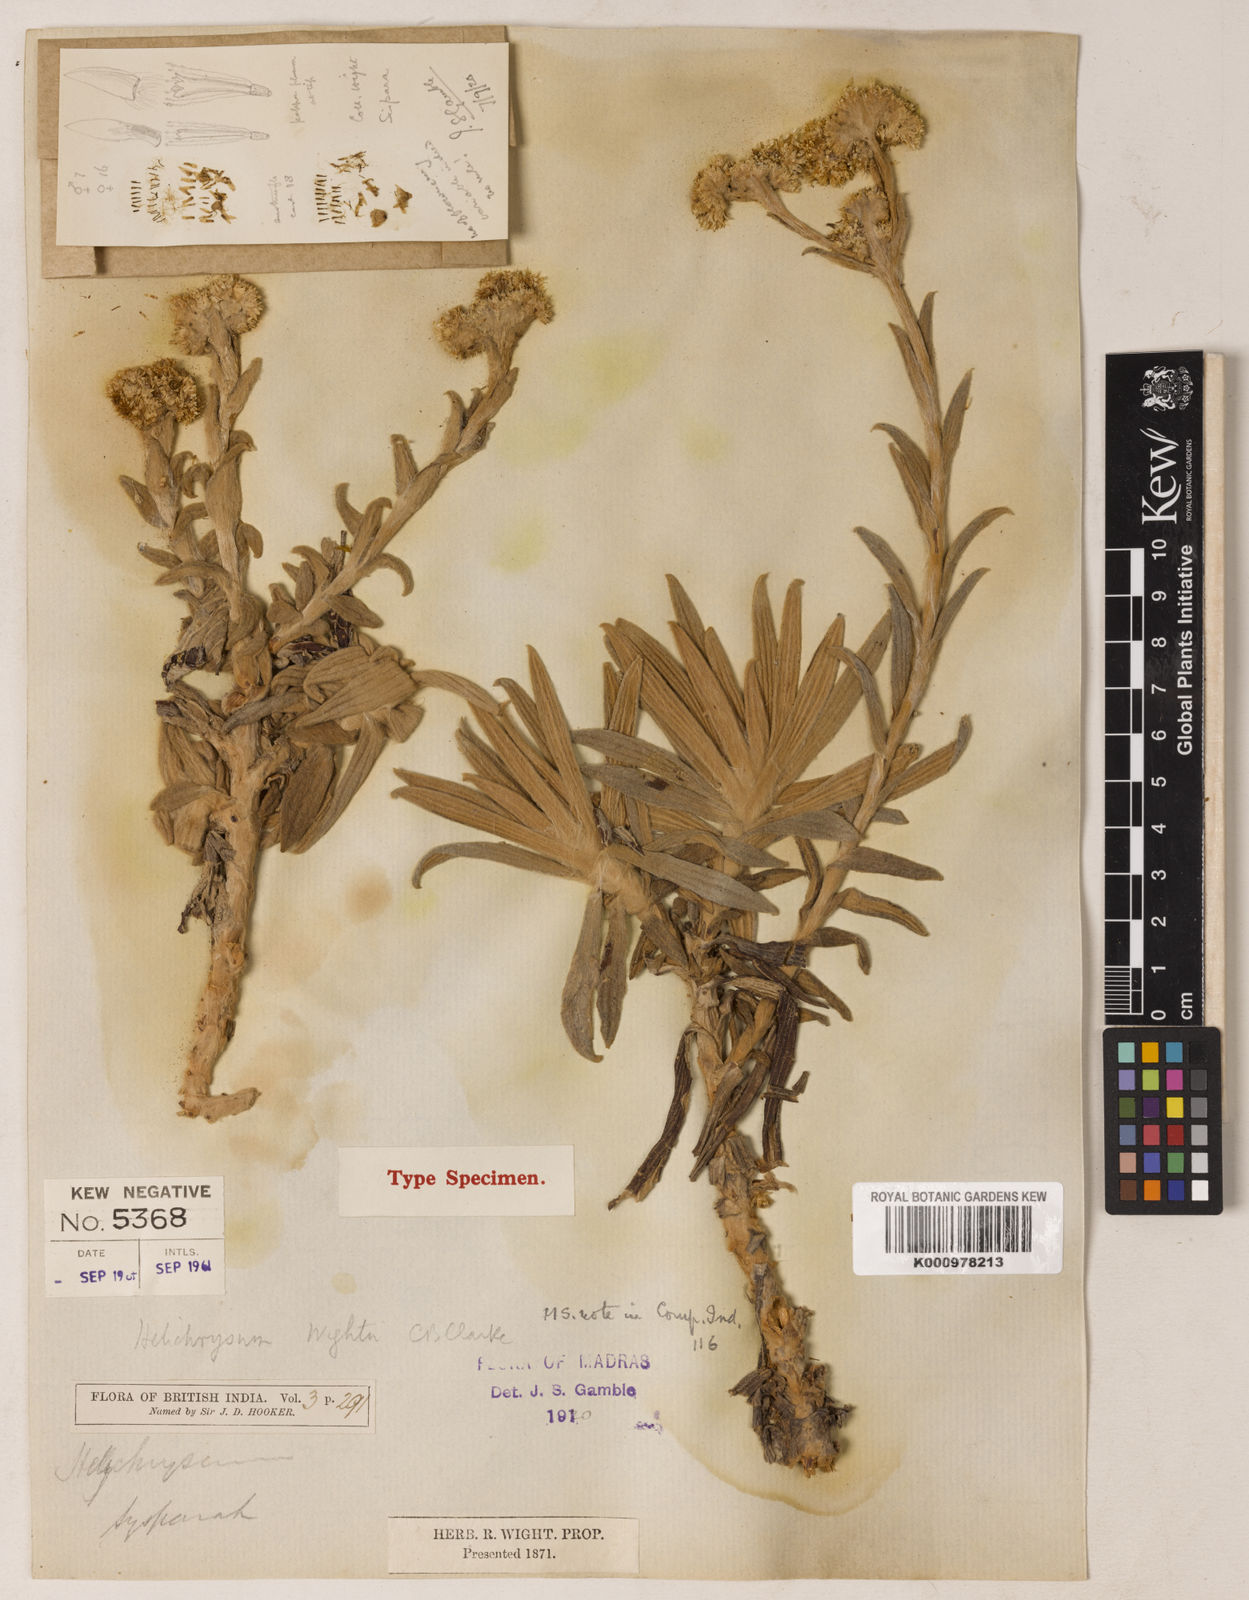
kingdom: Plantae
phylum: Tracheophyta
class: Magnoliopsida
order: Asterales
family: Asteraceae
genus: Helichrysum
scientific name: Helichrysum
